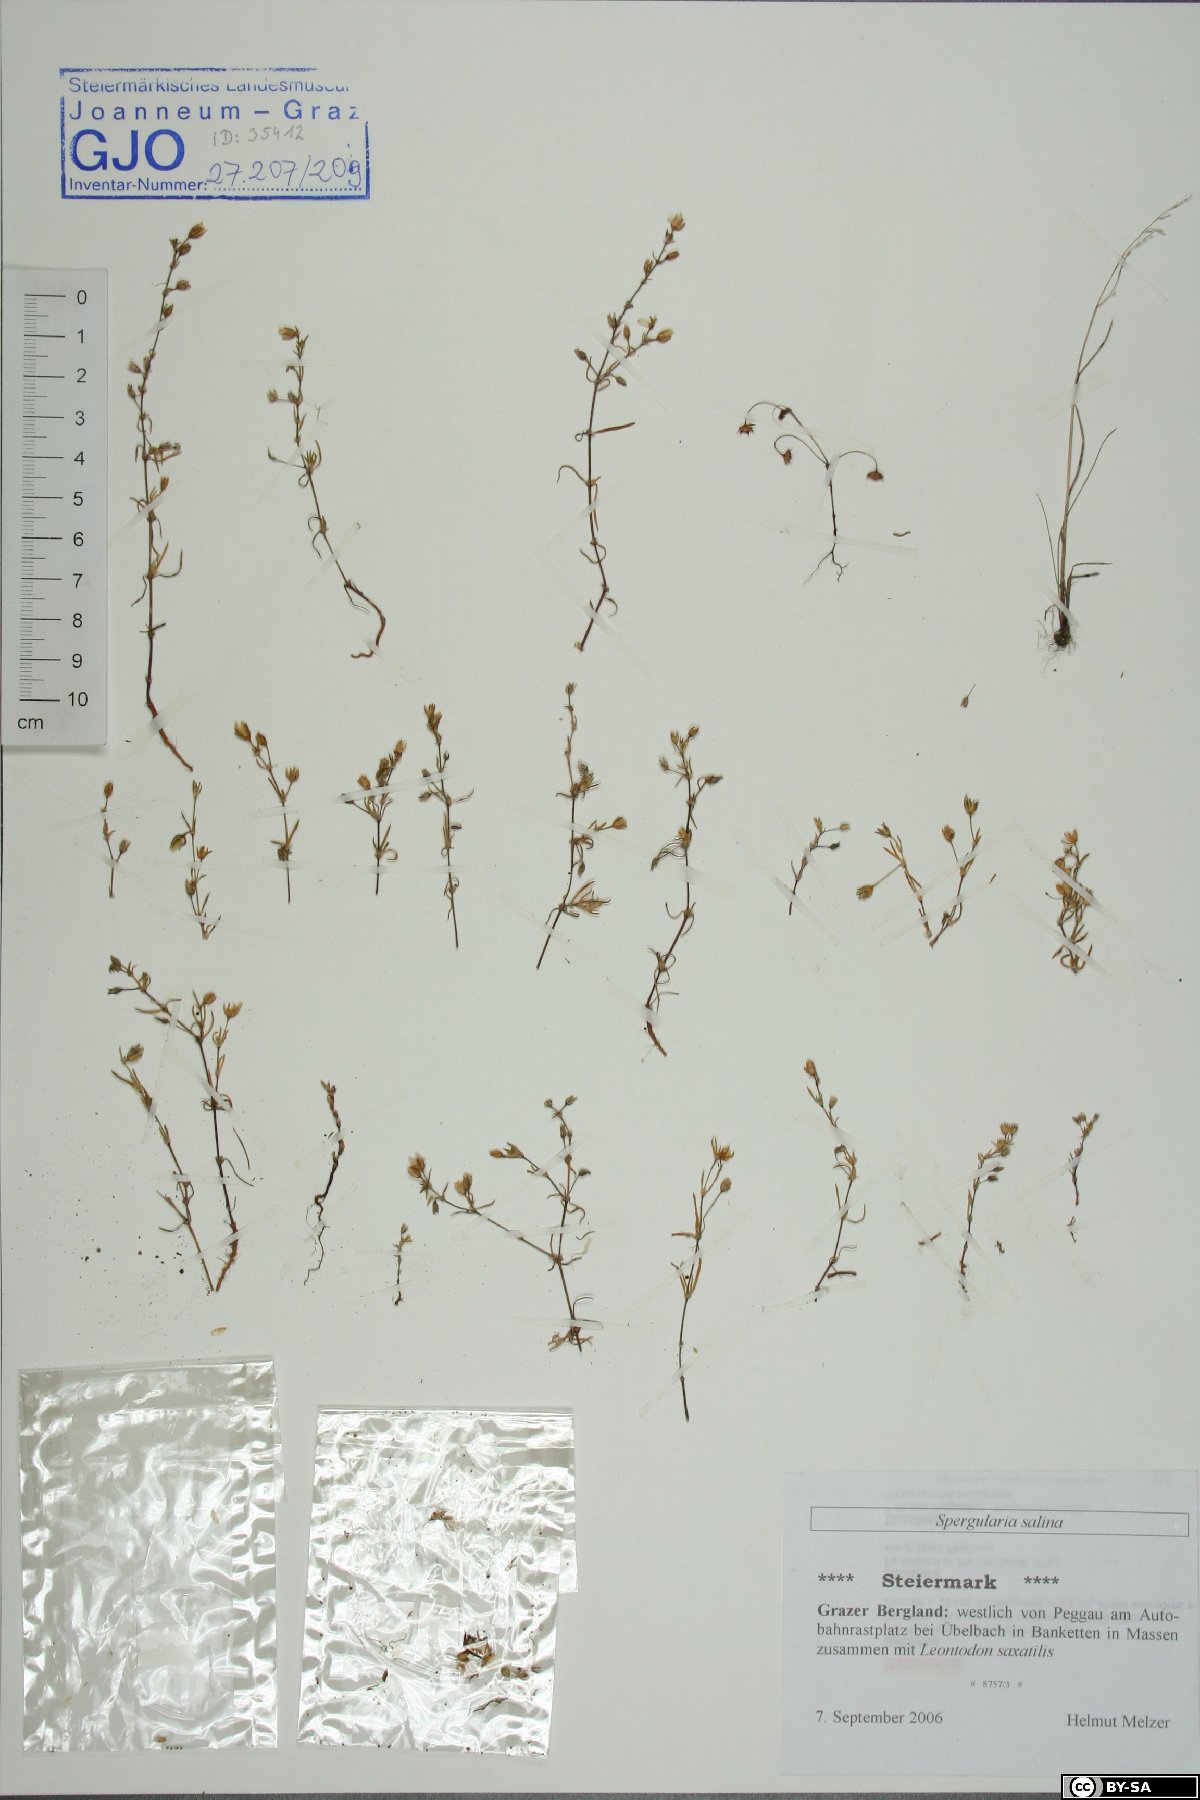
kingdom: Plantae
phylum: Tracheophyta
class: Magnoliopsida
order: Caryophyllales
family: Caryophyllaceae
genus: Spergularia
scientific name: Spergularia marina
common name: Lesser sea-spurrey
